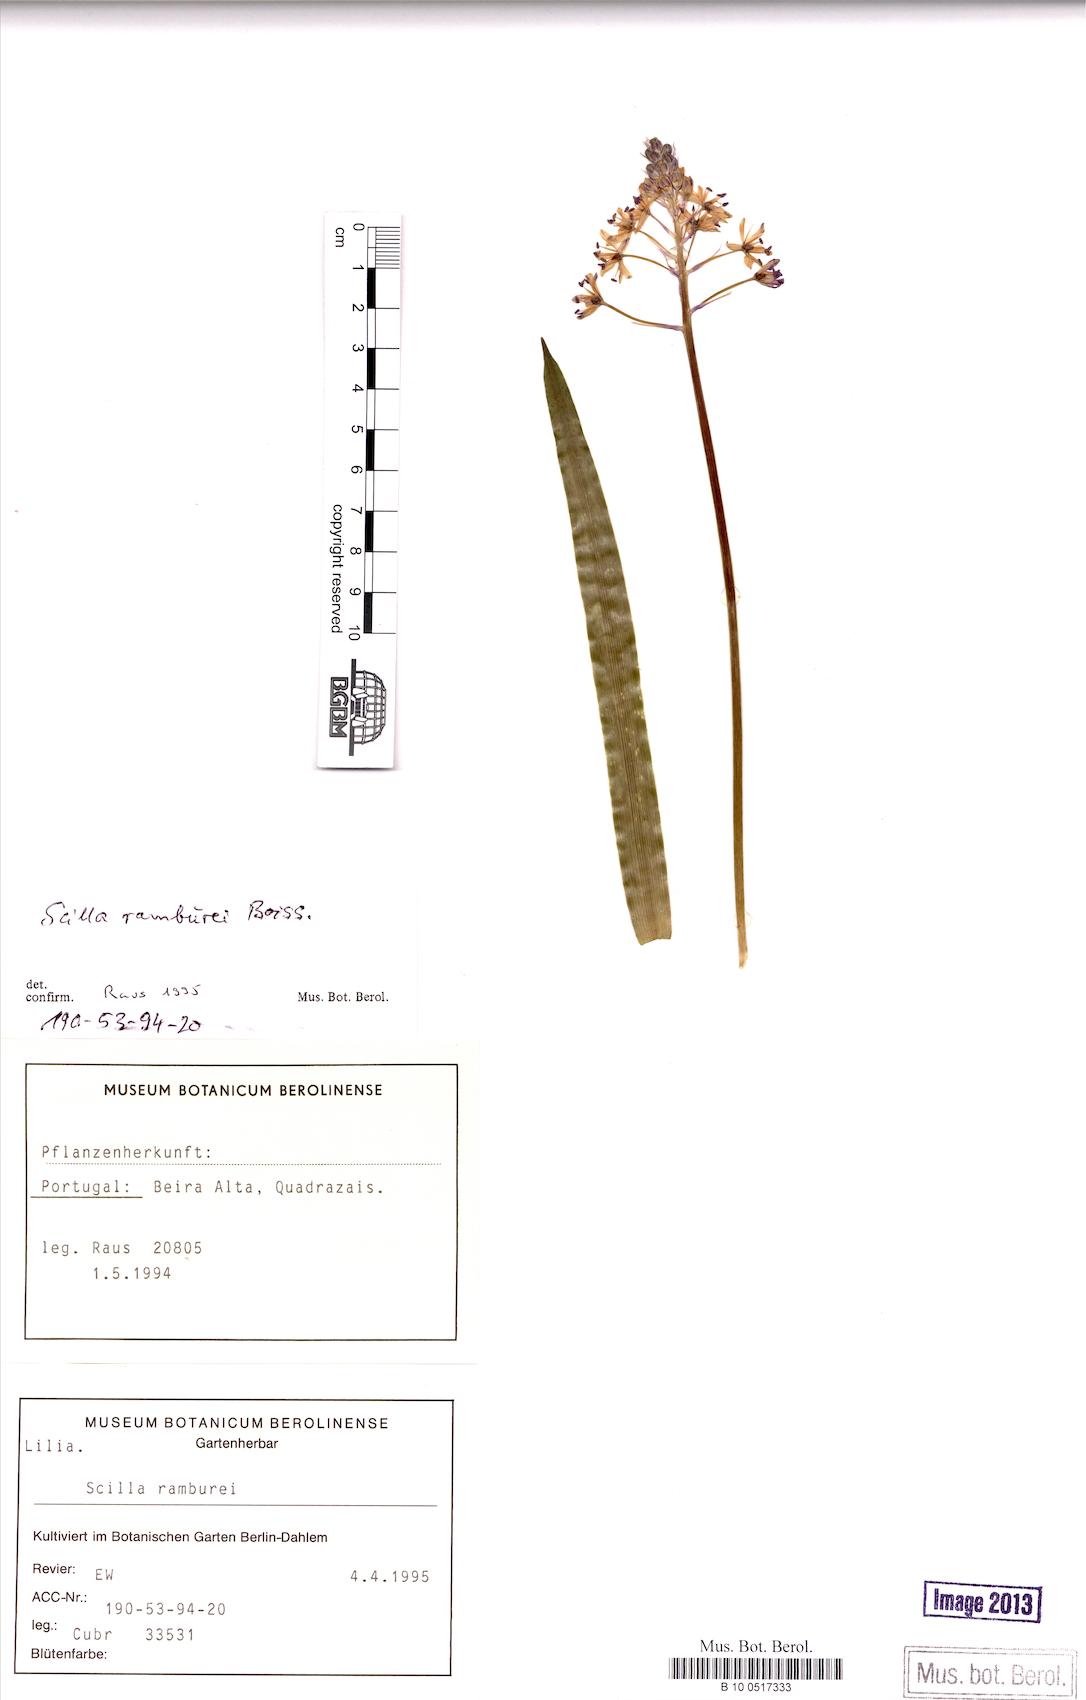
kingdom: Plantae
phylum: Tracheophyta
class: Liliopsida
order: Asparagales
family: Asparagaceae
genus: Scilla
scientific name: Scilla verna
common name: Spring squill
